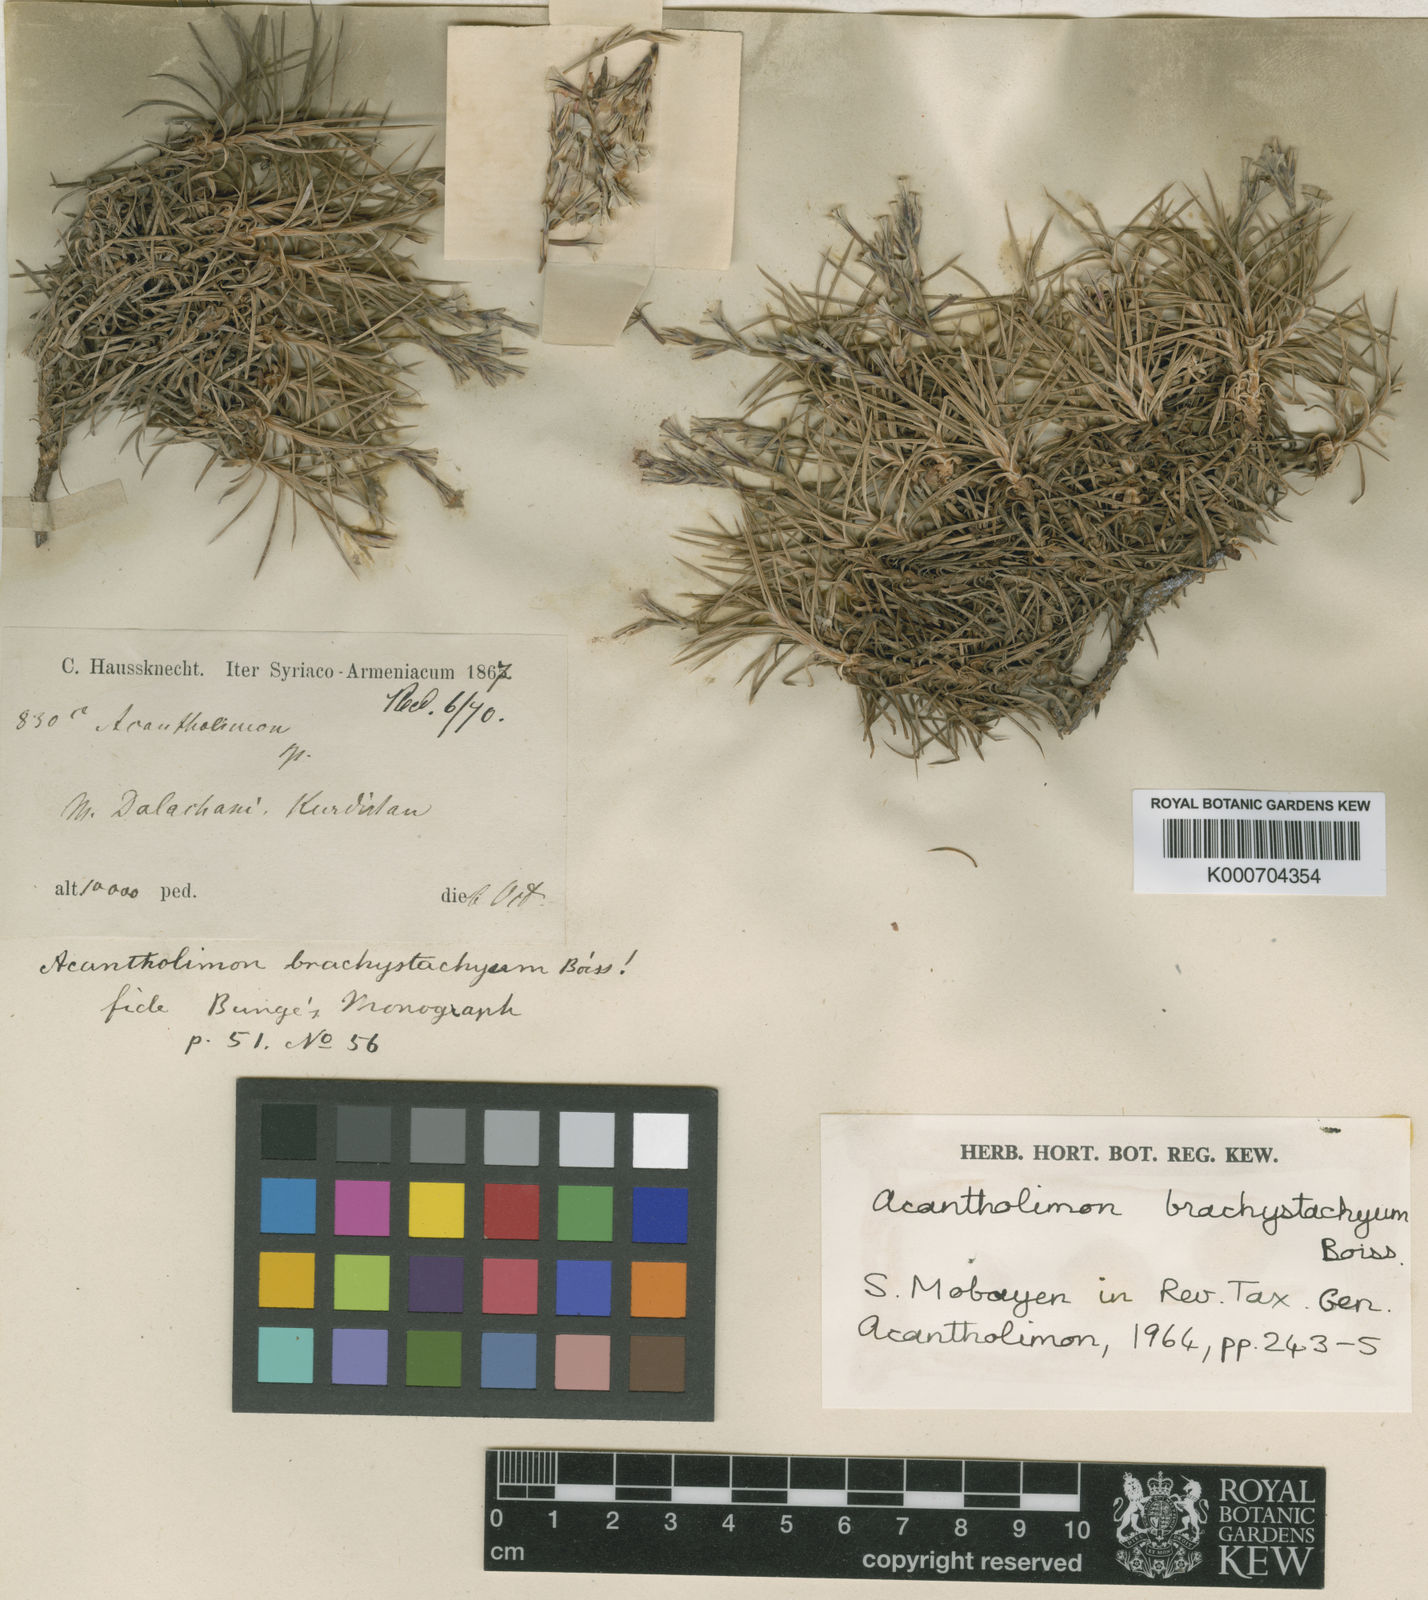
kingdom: Plantae
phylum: Tracheophyta
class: Magnoliopsida
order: Caryophyllales
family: Plumbaginaceae
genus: Acantholimon
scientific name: Acantholimon brachystachyum
